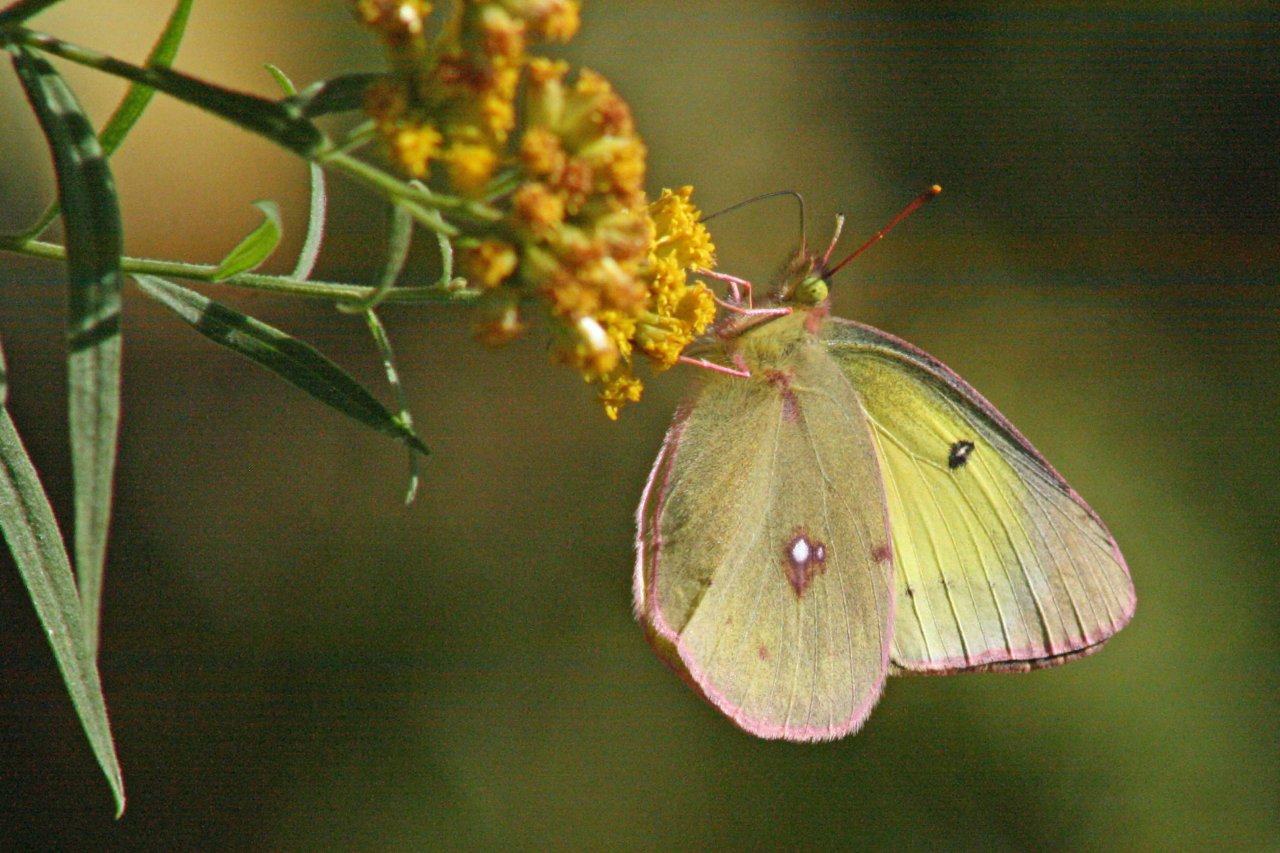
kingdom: Animalia
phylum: Arthropoda
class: Insecta
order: Lepidoptera
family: Pieridae
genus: Colias
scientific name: Colias philodice
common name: Clouded Sulphur
